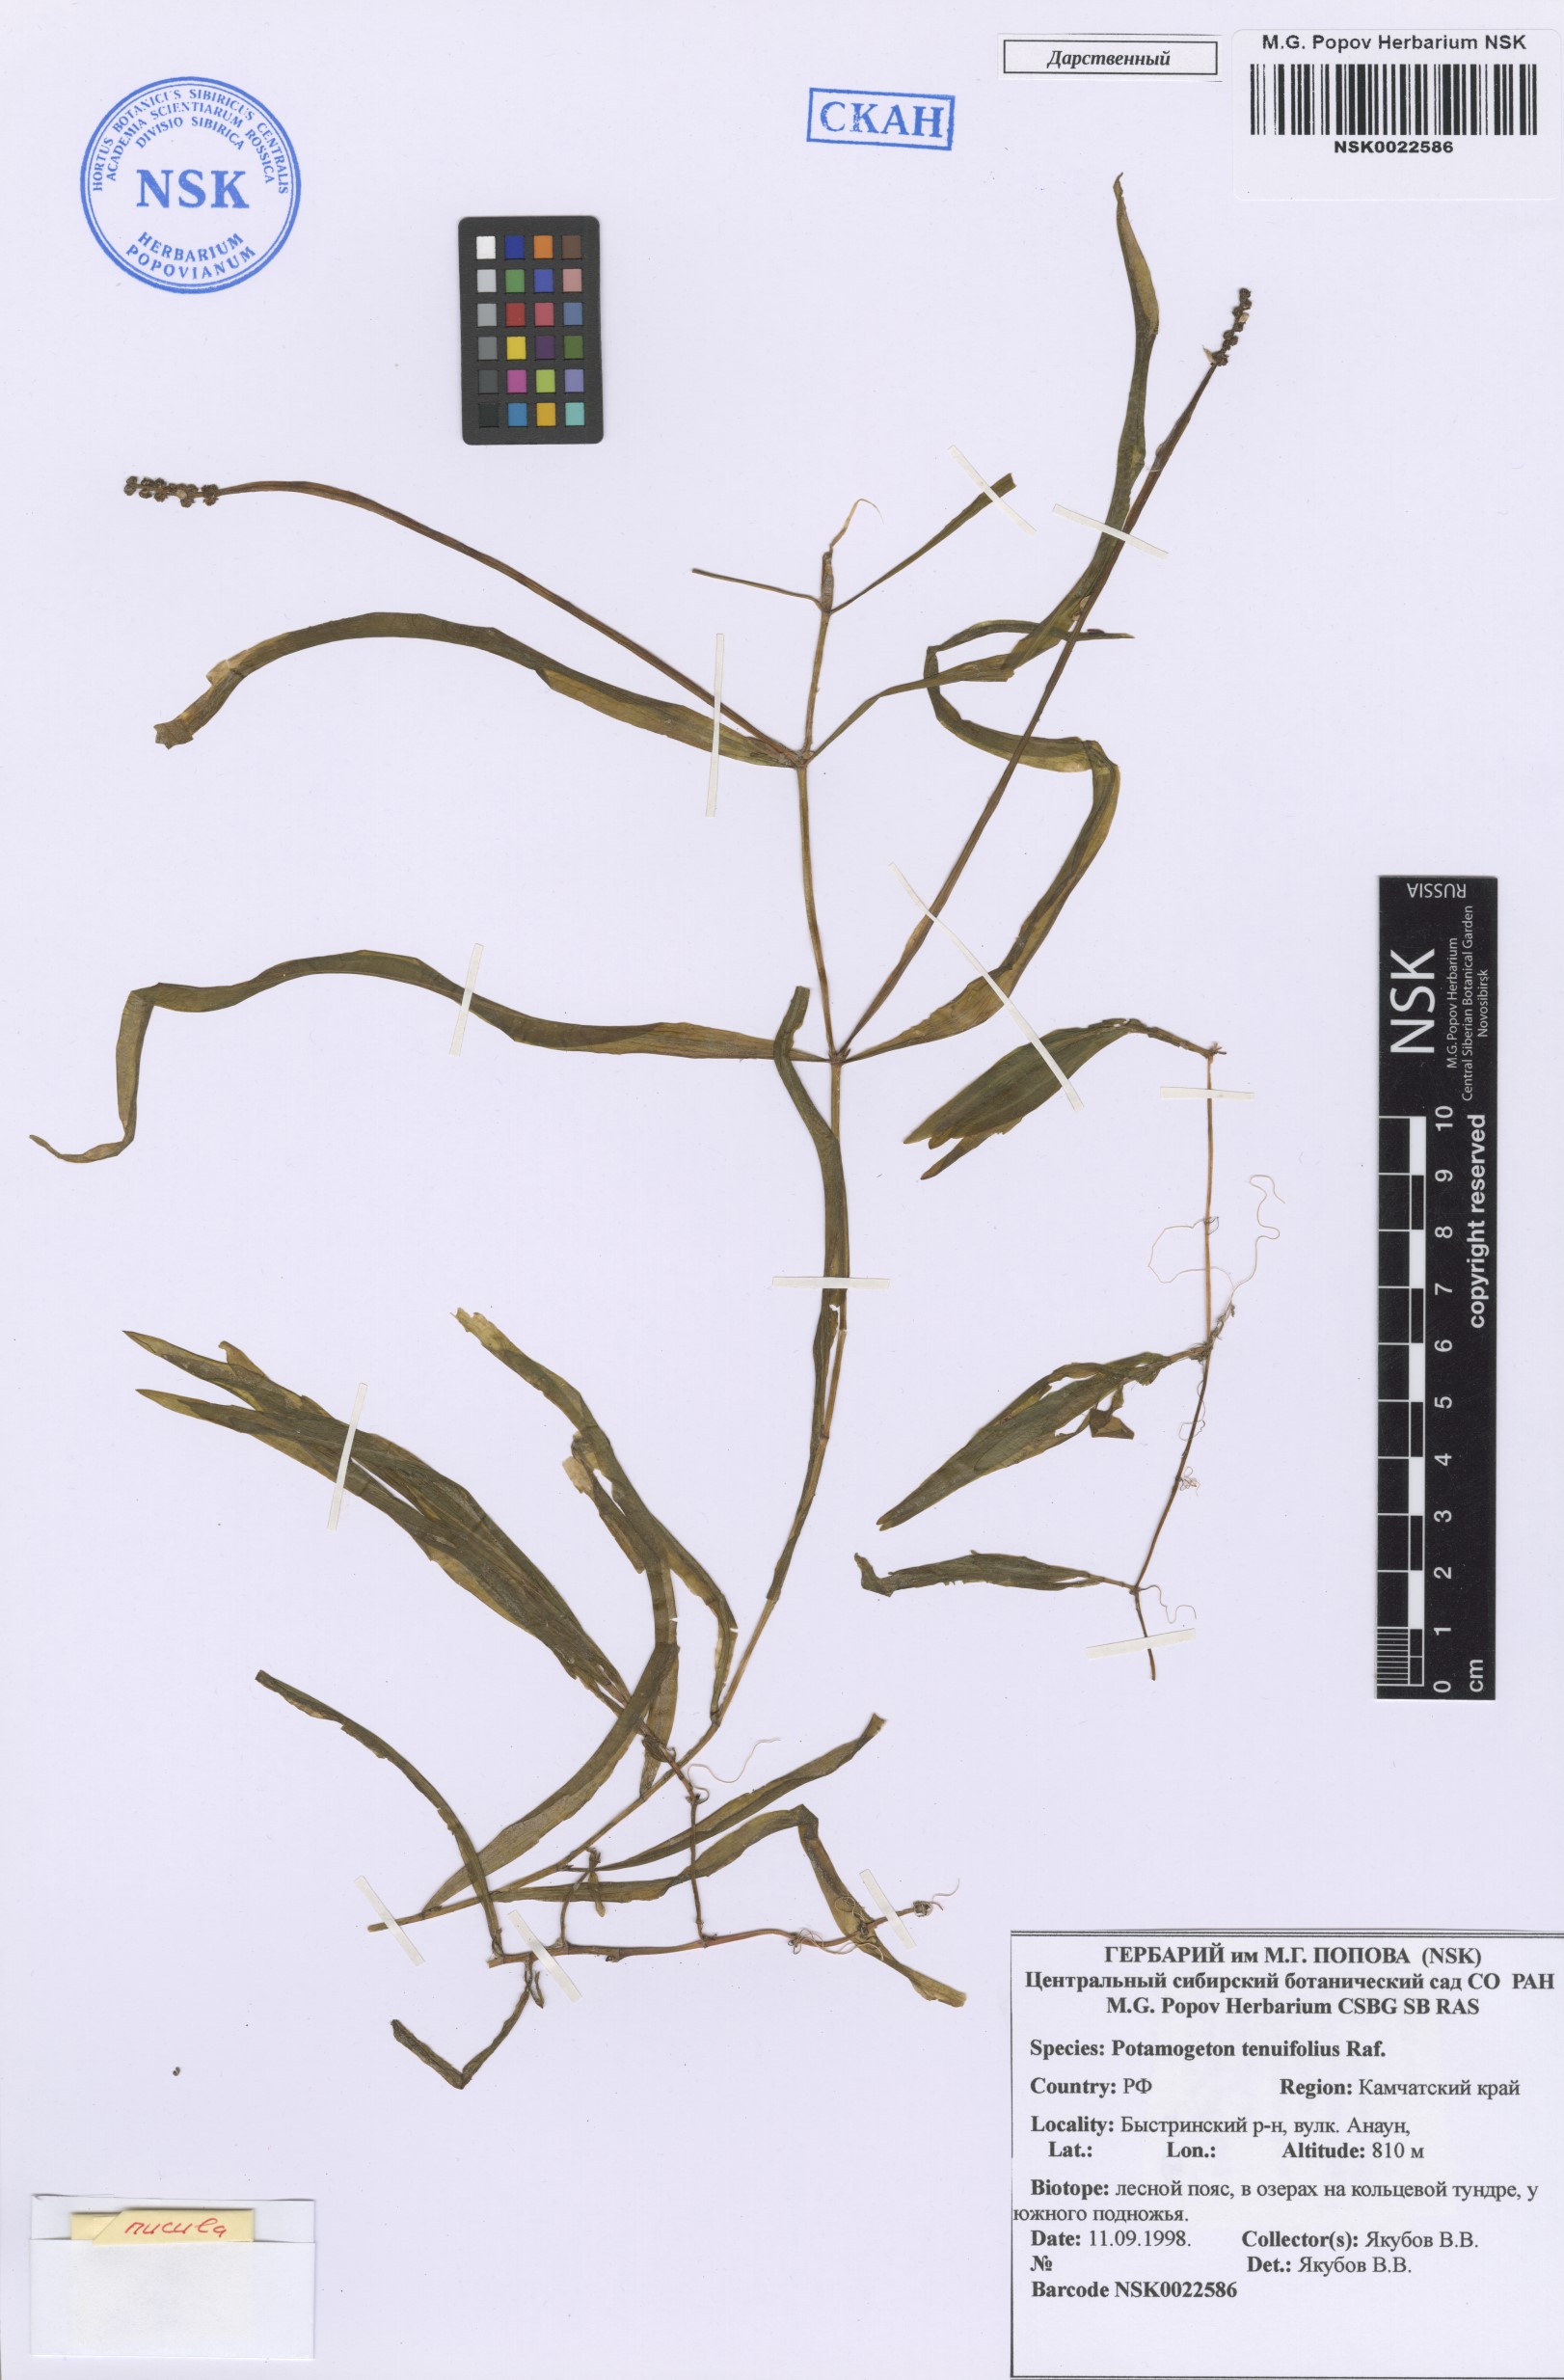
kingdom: Plantae
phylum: Tracheophyta
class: Liliopsida
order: Alismatales
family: Potamogetonaceae
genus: Potamogeton
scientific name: Potamogeton alpinus
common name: Red pondweed
